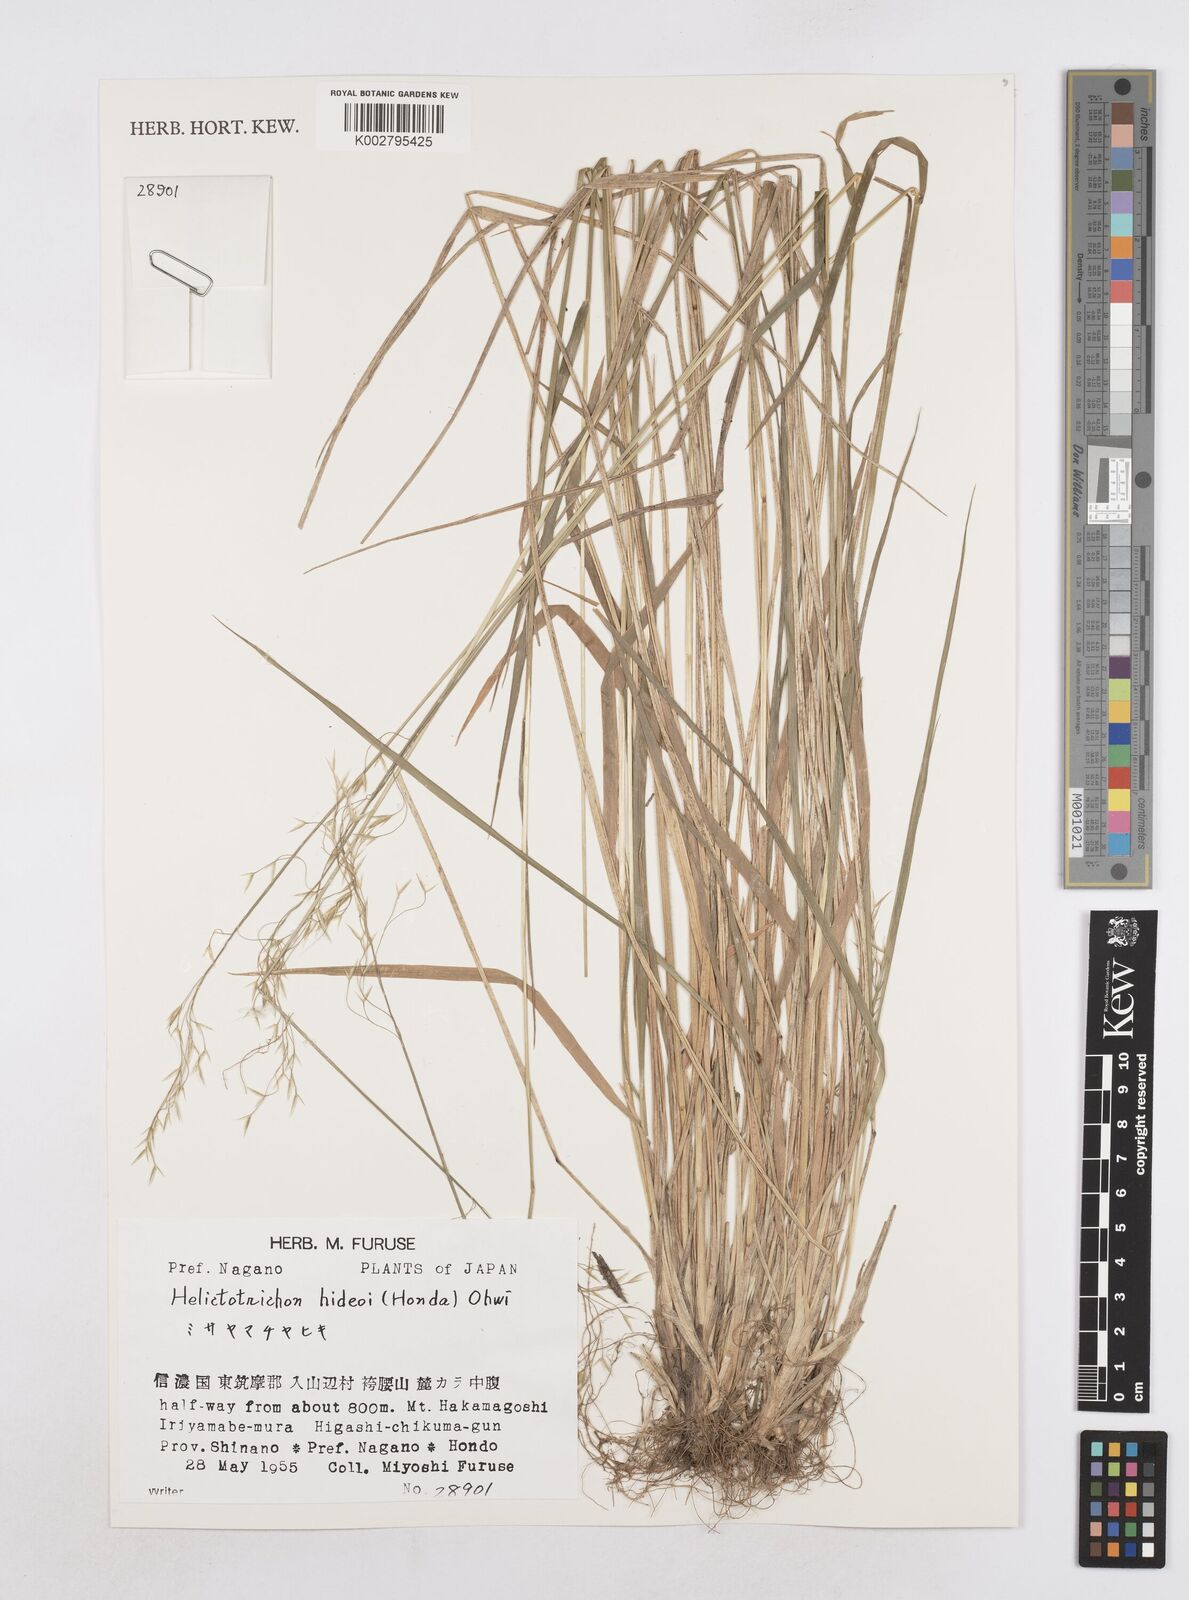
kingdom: Plantae
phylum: Tracheophyta
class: Liliopsida
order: Poales
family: Poaceae
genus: Helictotrichon
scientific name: Helictotrichon hideoi
